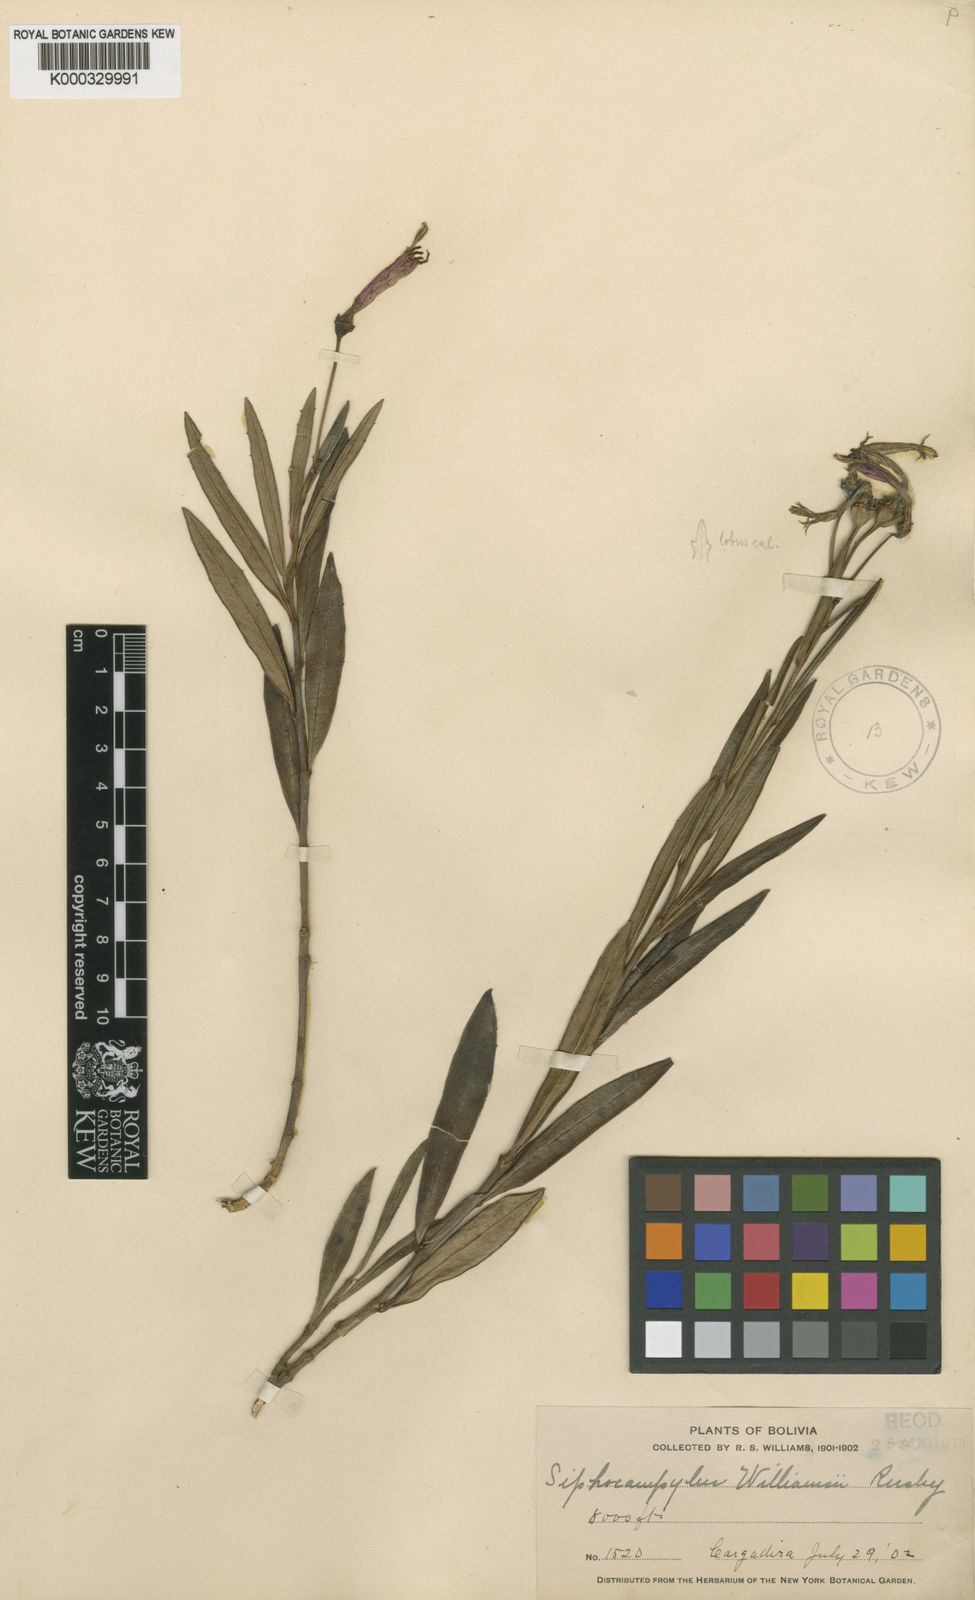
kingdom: Plantae
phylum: Tracheophyta
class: Magnoliopsida
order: Asterales
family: Campanulaceae
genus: Siphocampylus
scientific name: Siphocampylus williamsii
